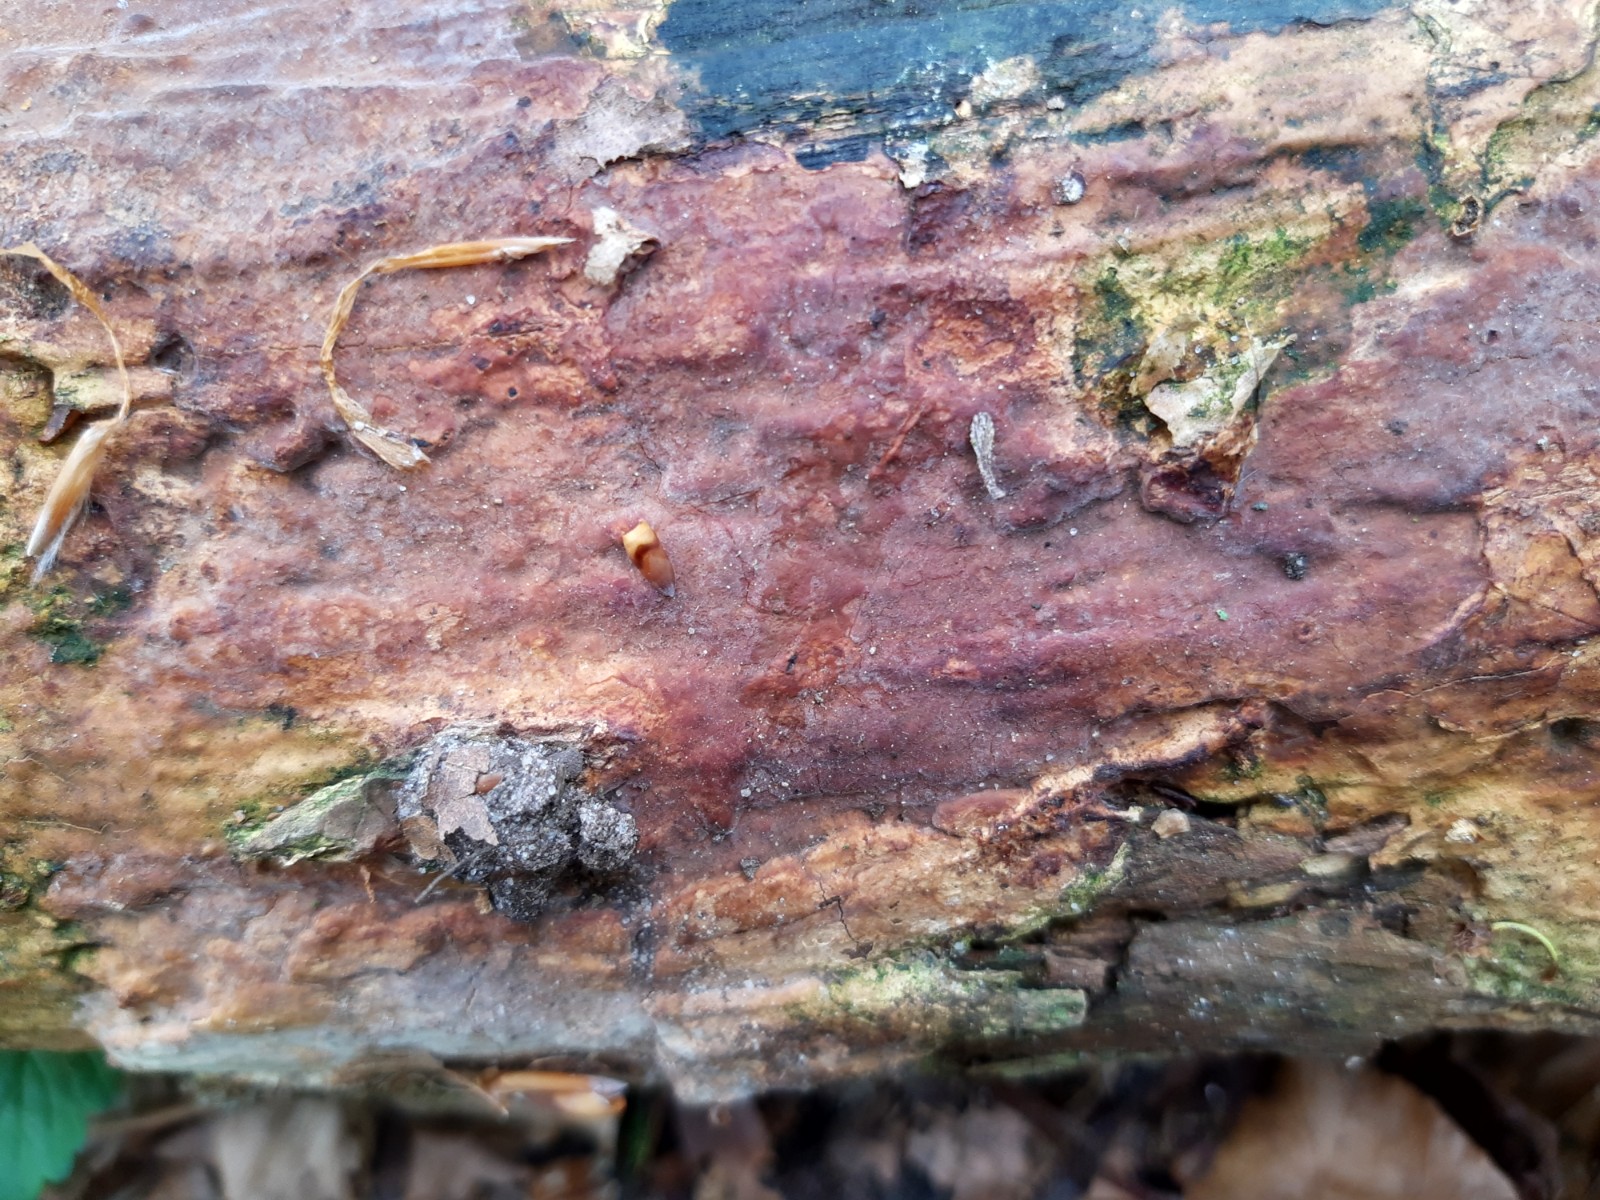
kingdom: Fungi
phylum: Basidiomycota
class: Agaricomycetes
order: Russulales
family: Peniophoraceae
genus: Scytinostroma
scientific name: Scytinostroma hemidichophyticum
